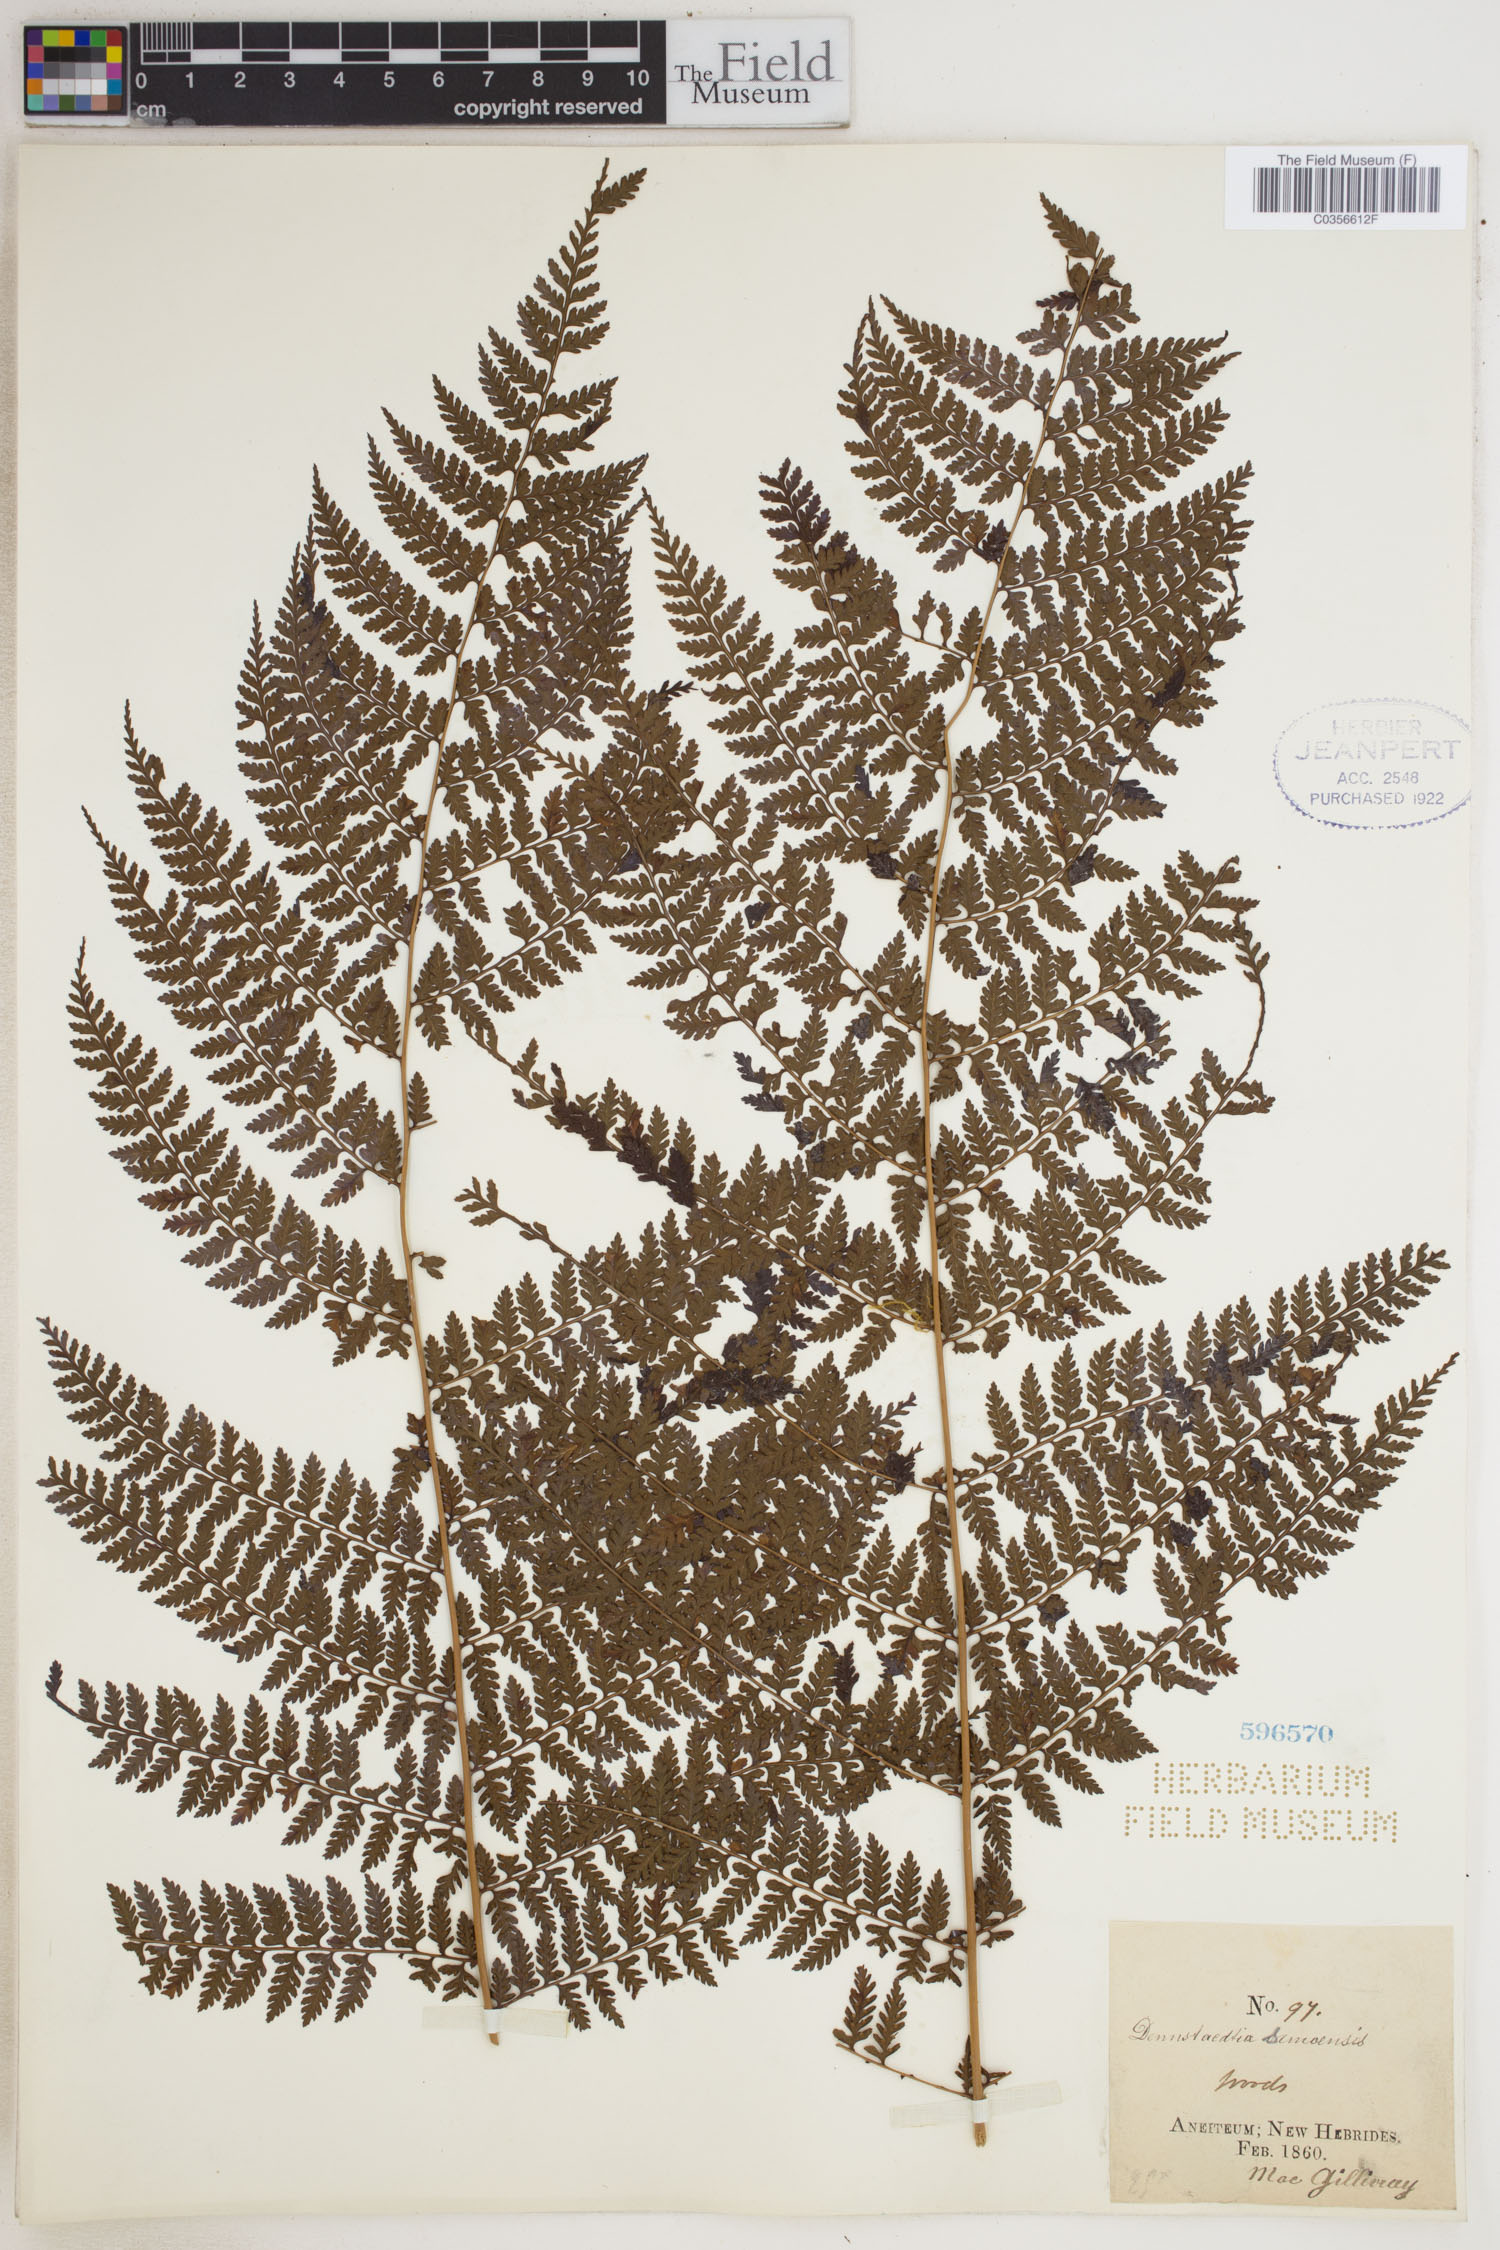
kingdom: Plantae
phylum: Tracheophyta
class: Polypodiopsida
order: Polypodiales
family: Dennstaedtiaceae
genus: Dennstaedtia
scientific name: Dennstaedtia samoensis
